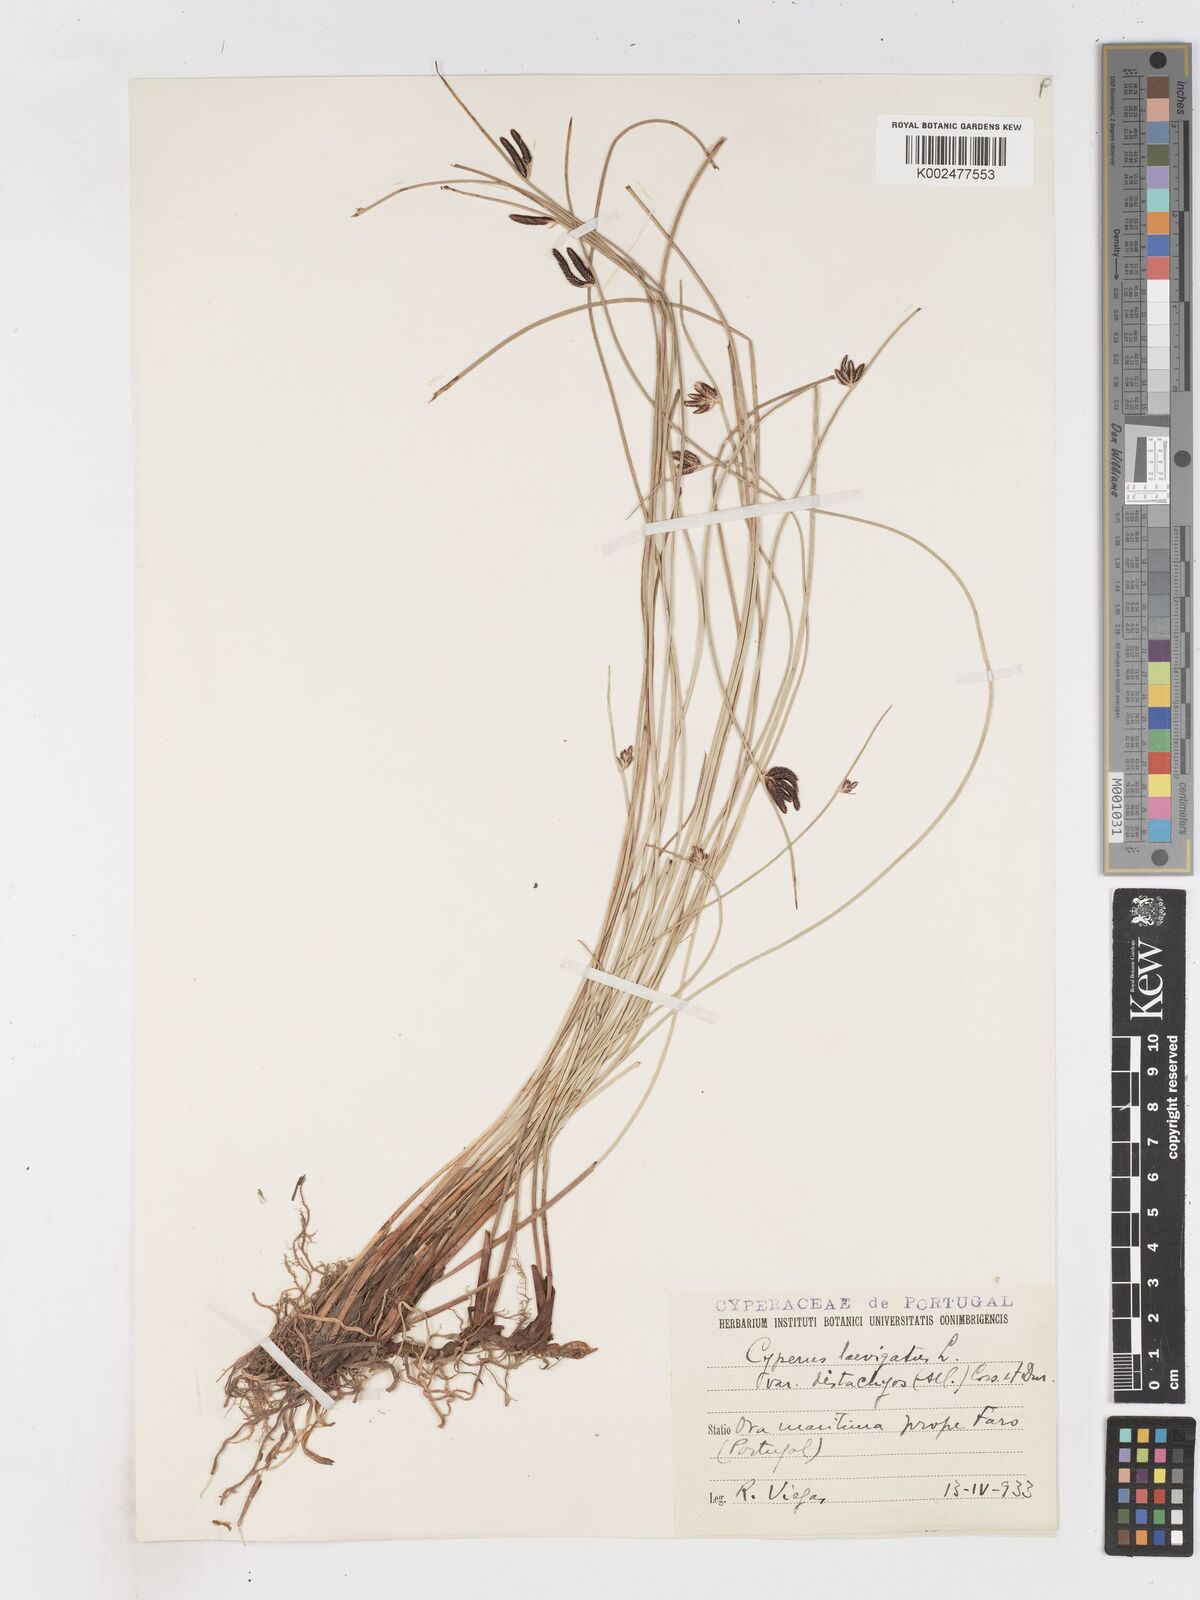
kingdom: Plantae
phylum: Tracheophyta
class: Liliopsida
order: Poales
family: Cyperaceae
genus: Cyperus
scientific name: Cyperus laevigatus
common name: Smooth flat sedge
